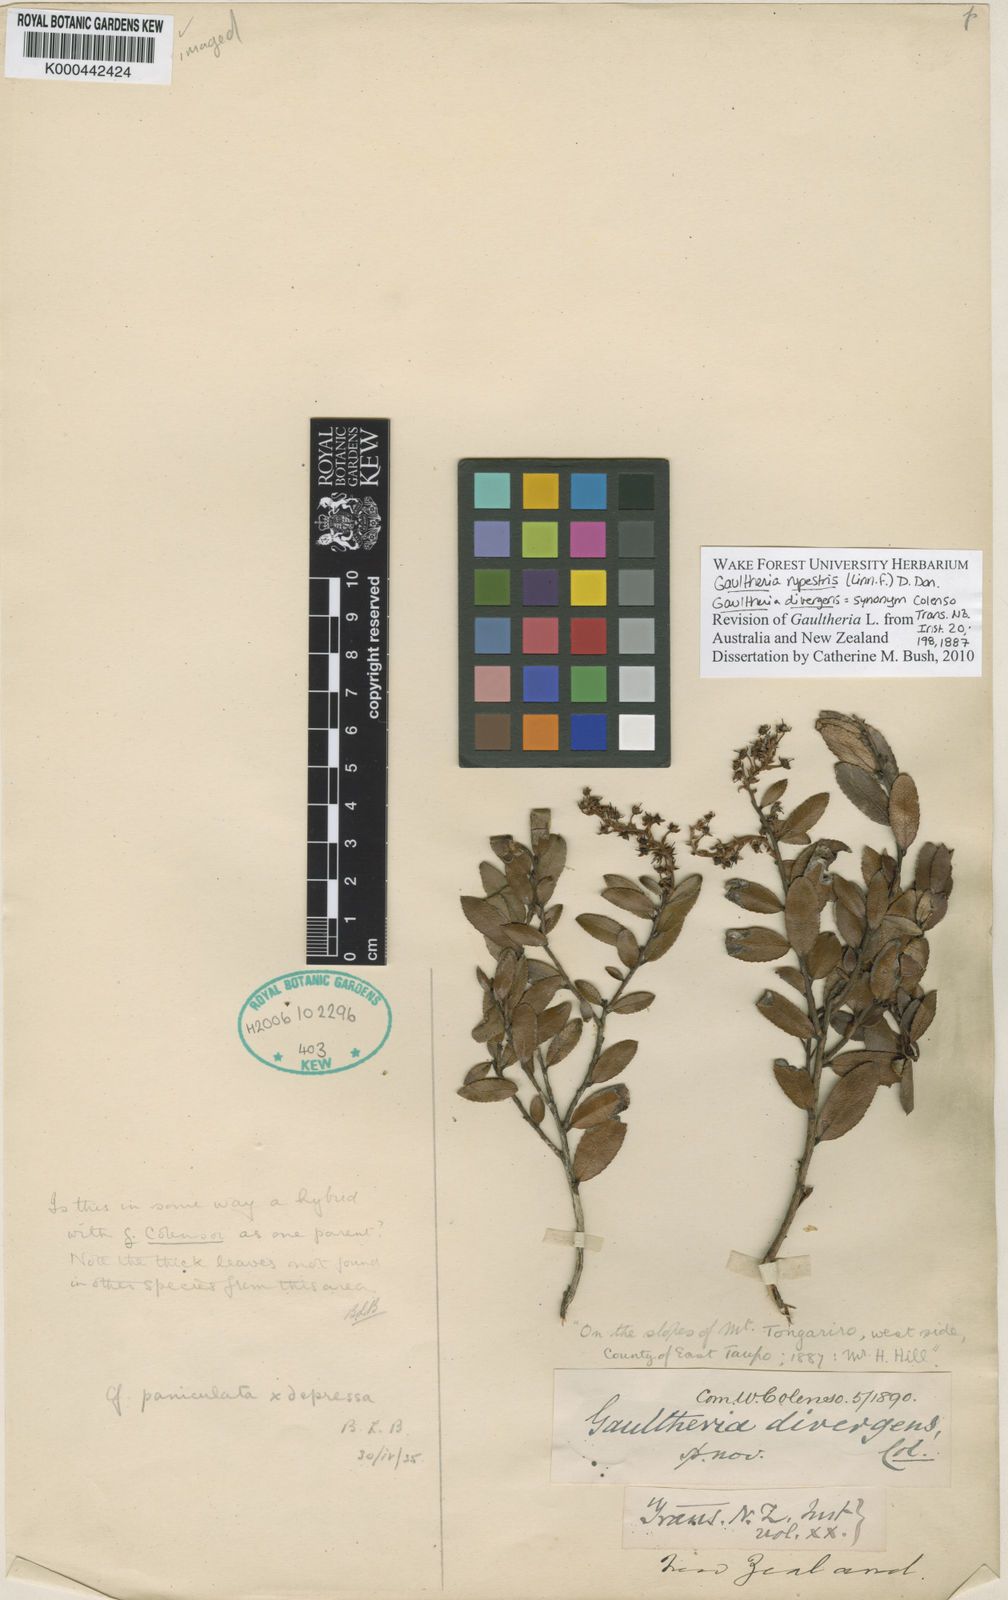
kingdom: Plantae
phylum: Tracheophyta
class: Magnoliopsida
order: Ericales
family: Ericaceae
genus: Gaultheria
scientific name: Gaultheria
